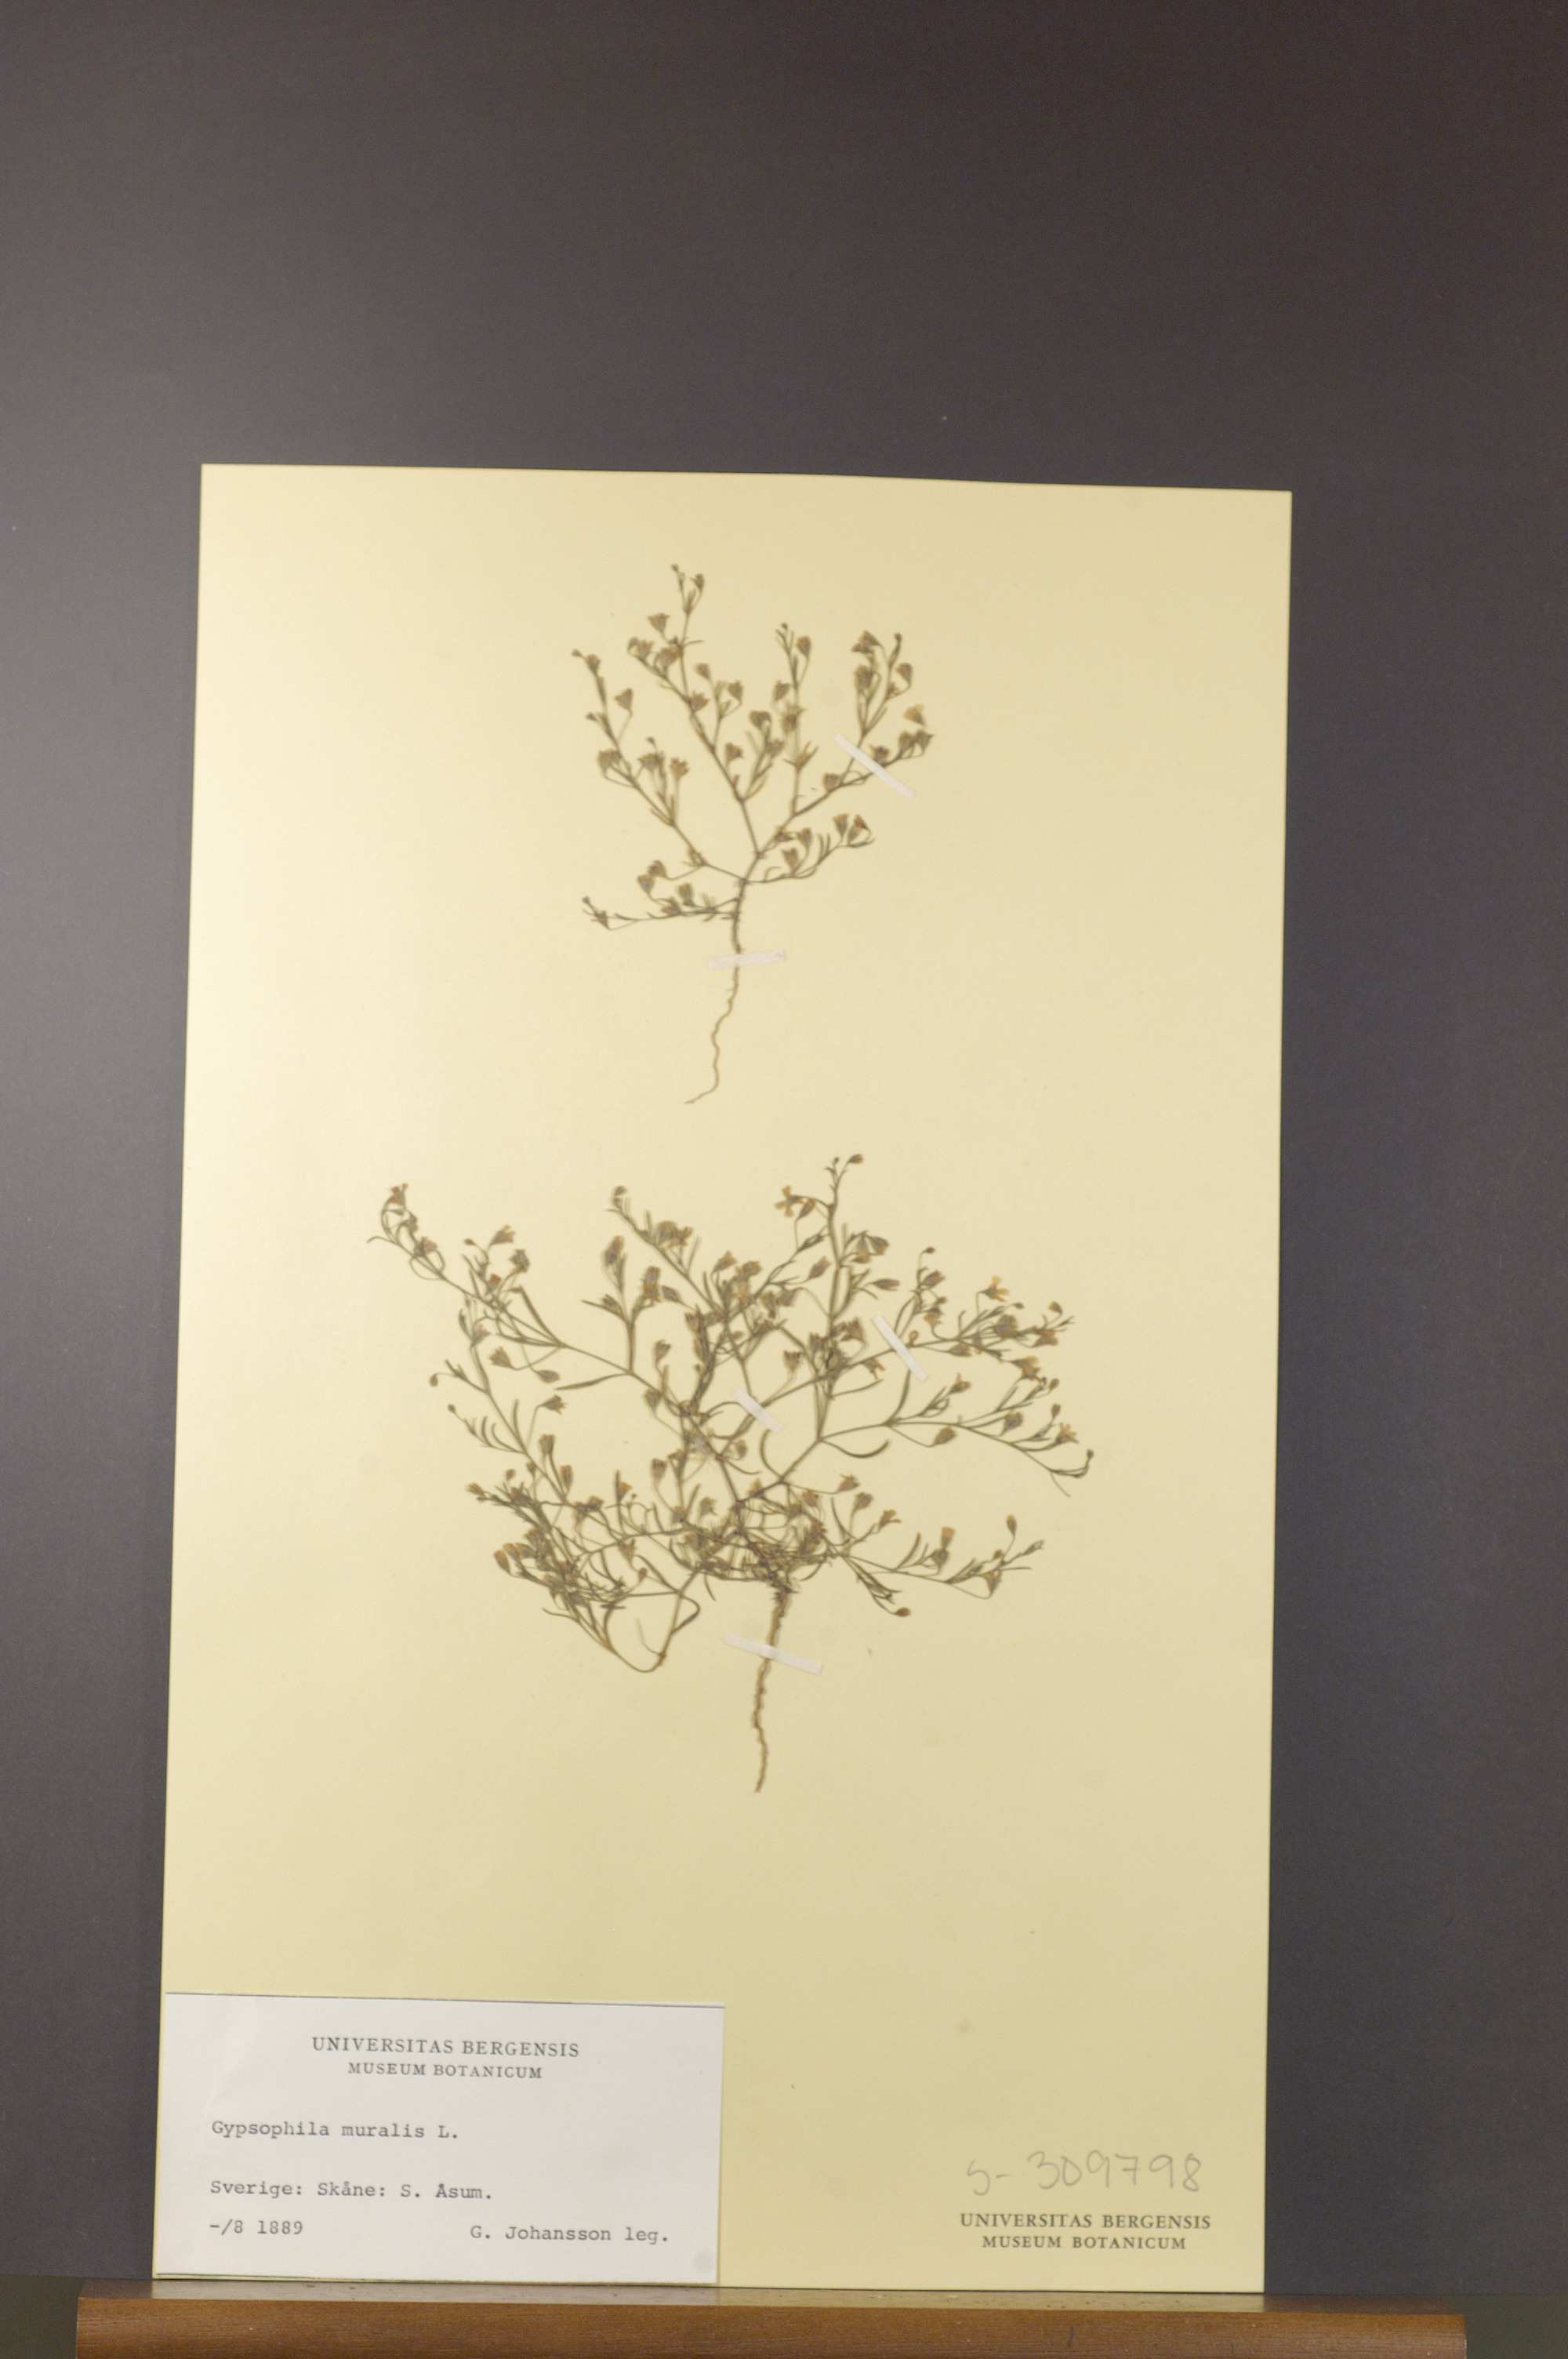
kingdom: Plantae
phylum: Tracheophyta
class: Magnoliopsida
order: Caryophyllales
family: Caryophyllaceae
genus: Psammophiliella
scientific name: Psammophiliella muralis
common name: Cushion baby's-breath
